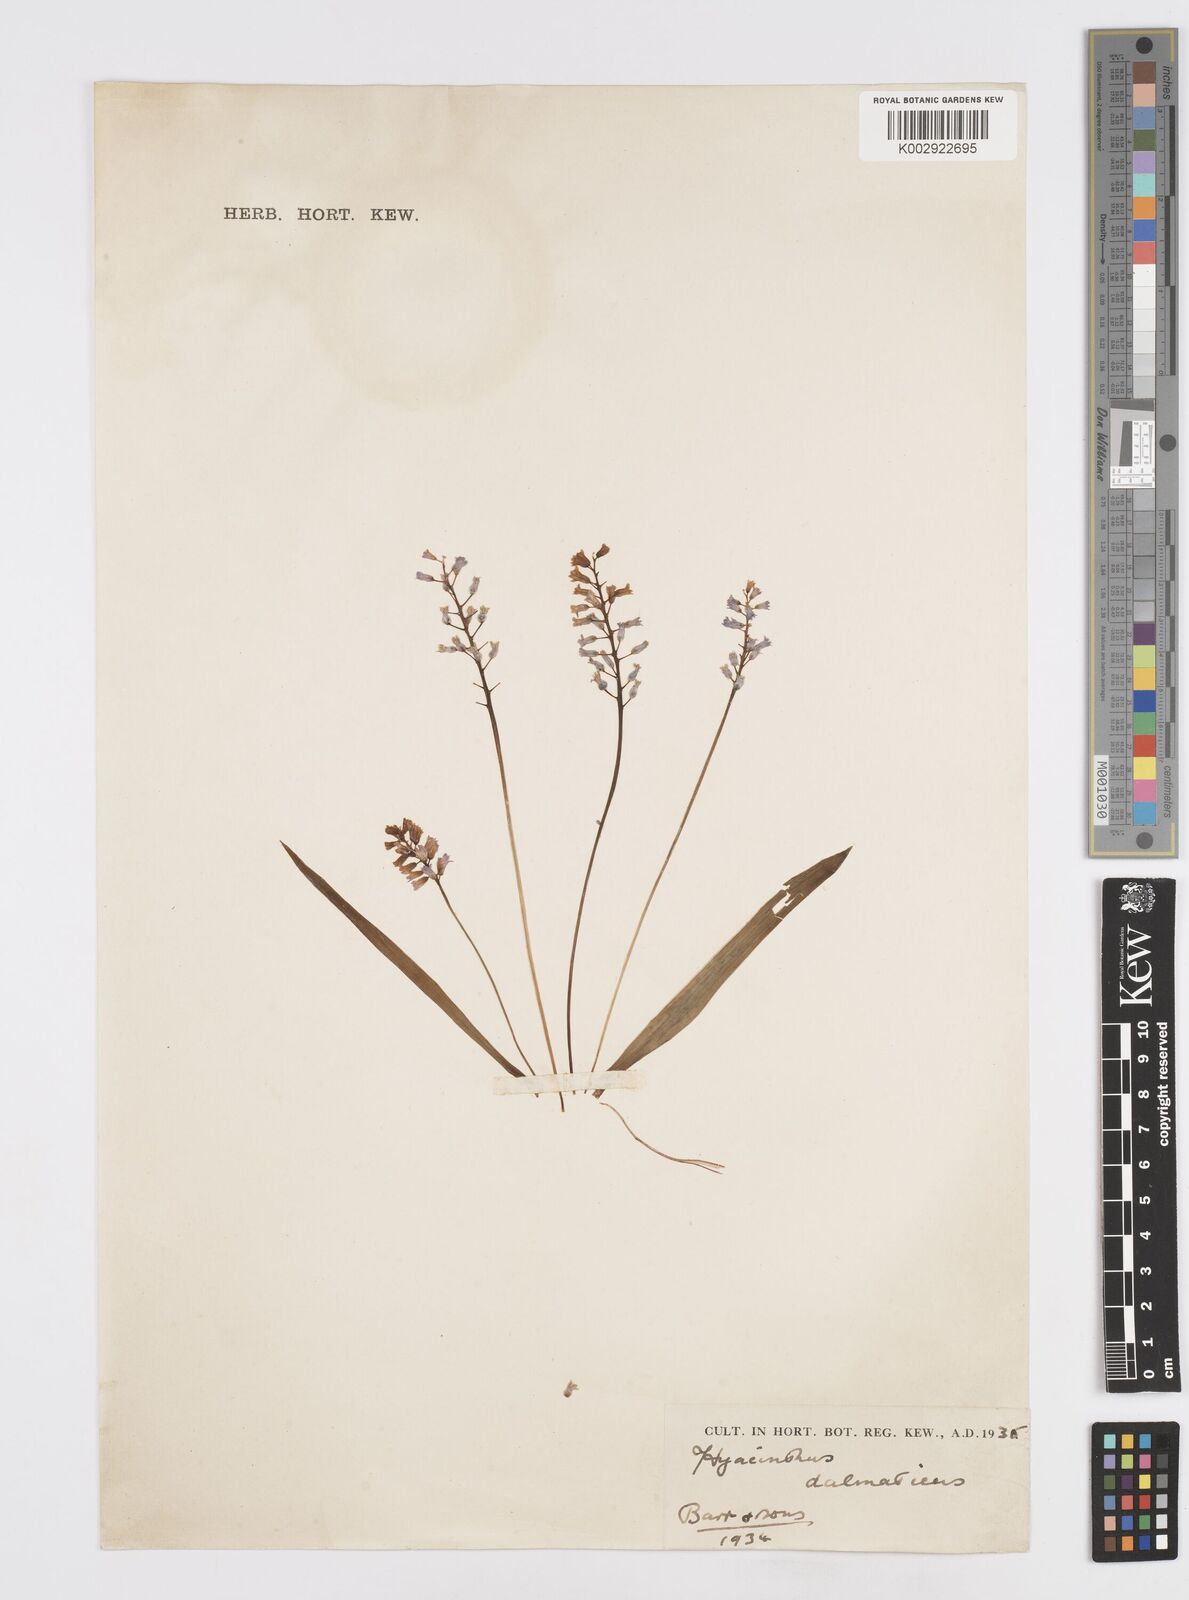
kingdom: Plantae
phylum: Tracheophyta
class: Liliopsida
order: Asparagales
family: Asparagaceae
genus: Hyacinthella
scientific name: Hyacinthella leucophaea
